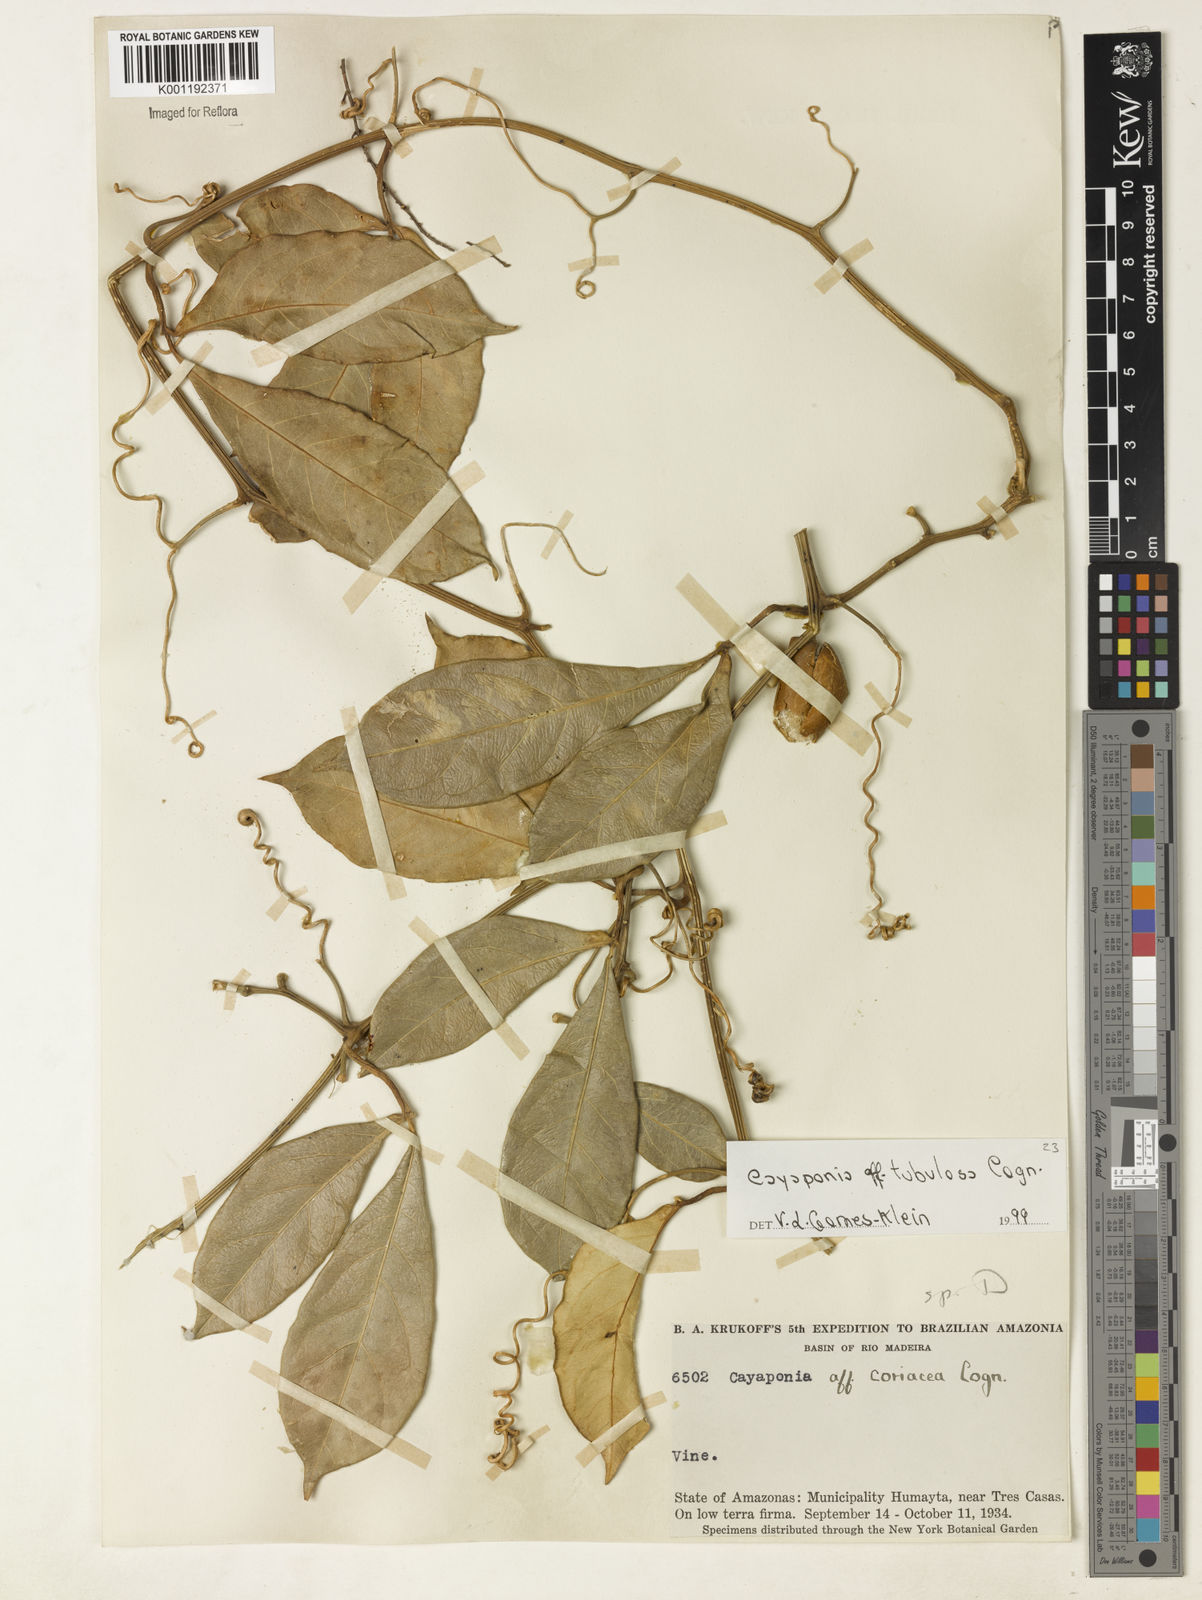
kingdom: Plantae
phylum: Tracheophyta
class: Magnoliopsida
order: Cucurbitales
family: Cucurbitaceae
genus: Cayaponia
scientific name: Cayaponia tubulosa
